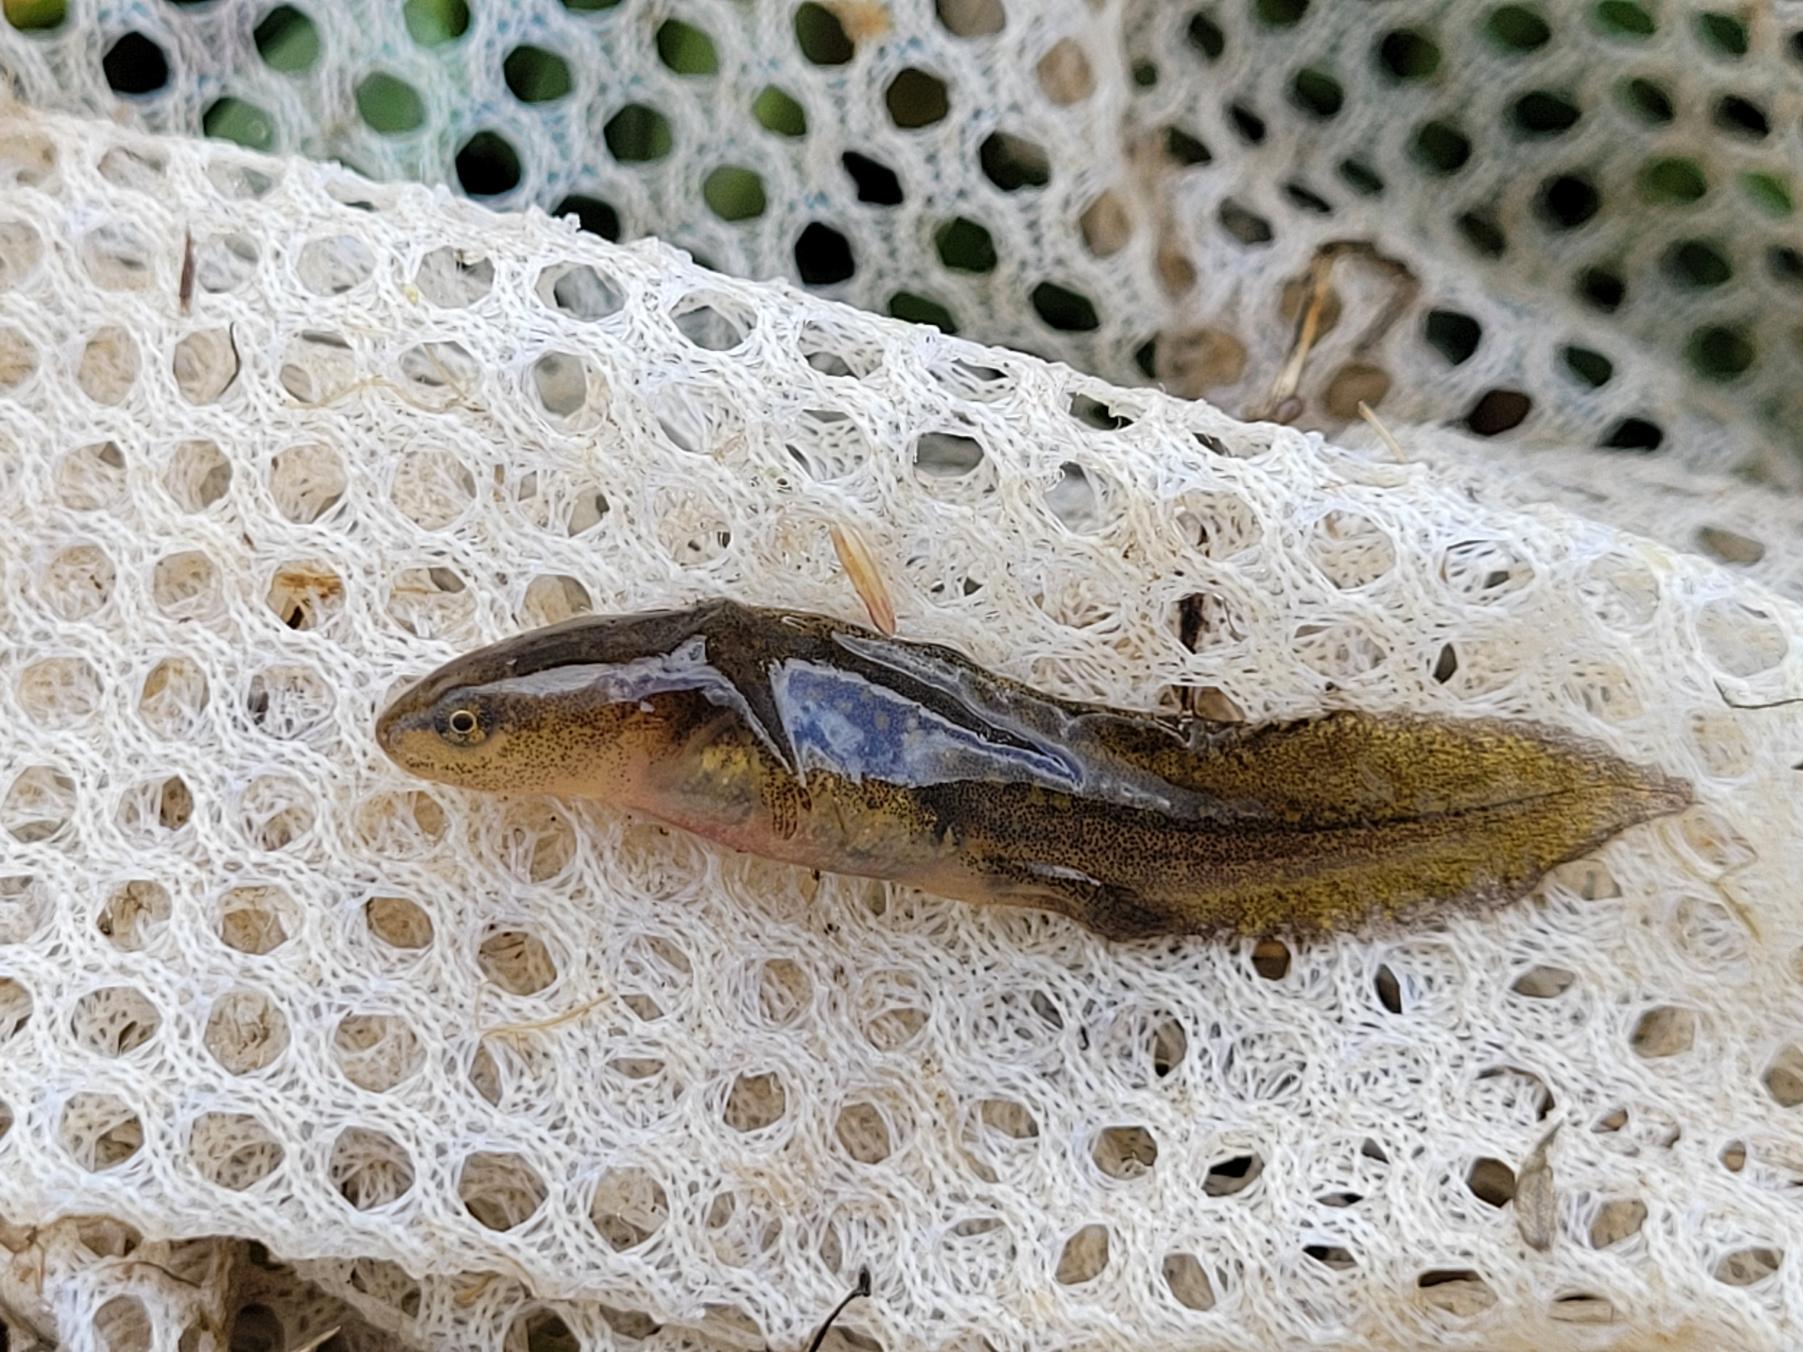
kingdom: Animalia
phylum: Chordata
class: Amphibia
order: Caudata
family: Salamandridae
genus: Lissotriton
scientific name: Lissotriton vulgaris
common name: Lille vandsalamander
